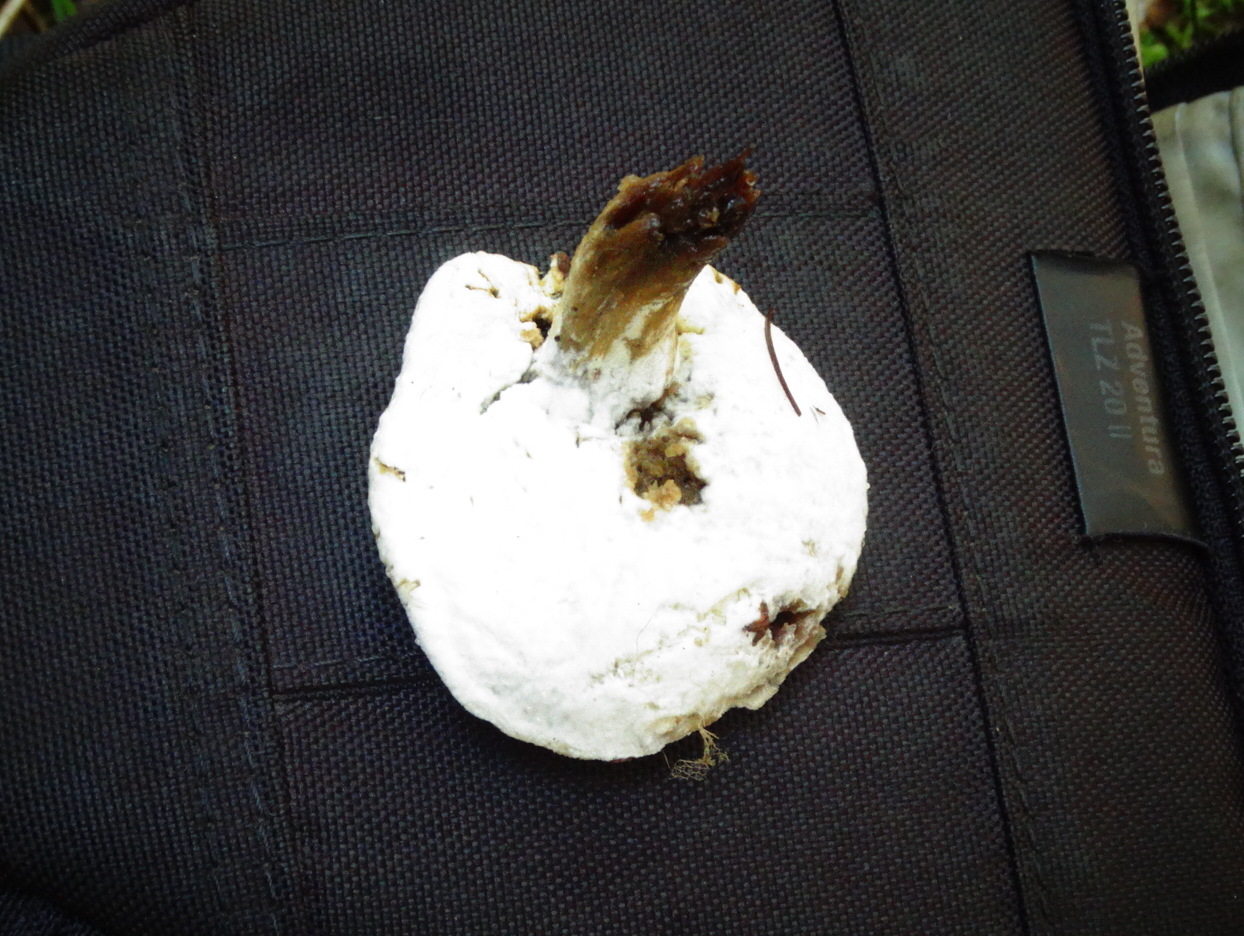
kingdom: Fungi
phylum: Ascomycota
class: Sordariomycetes
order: Hypocreales
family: Hypocreaceae
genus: Hypomyces
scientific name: Hypomyces microspermus
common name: dværgrørhat-snylteskorpe
